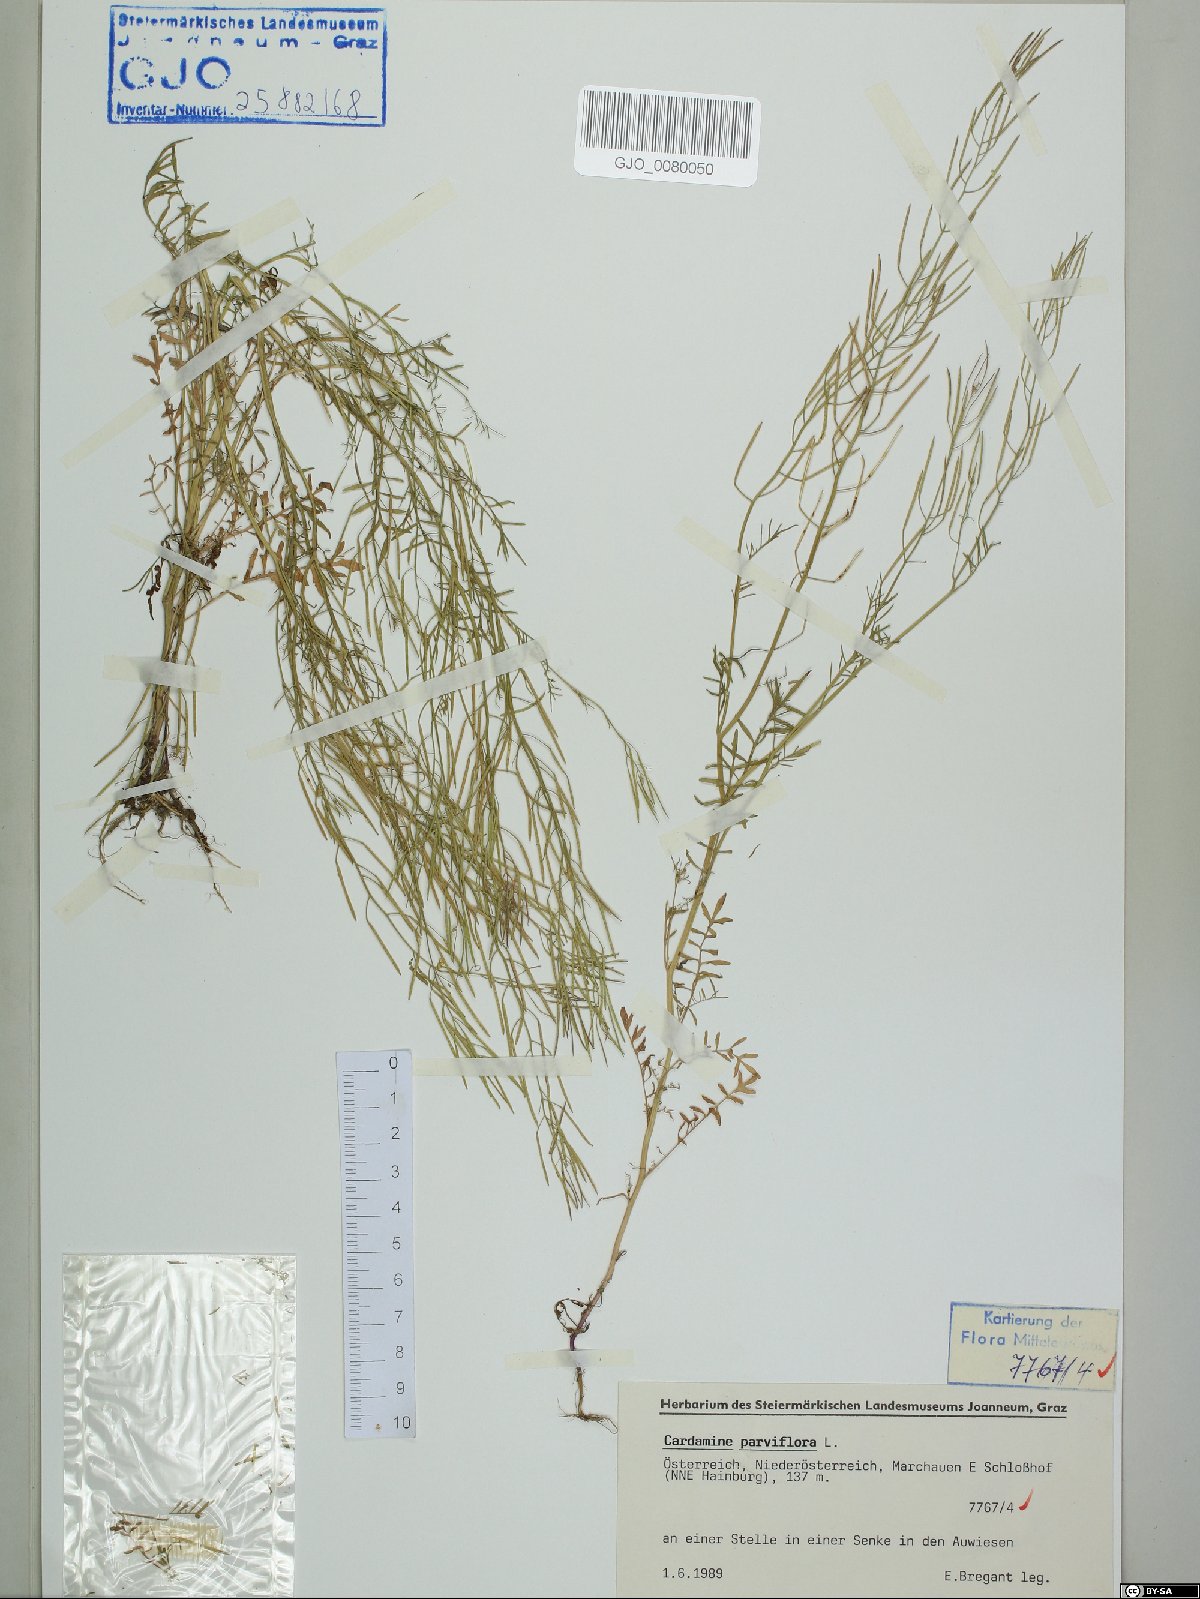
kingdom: Plantae
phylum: Tracheophyta
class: Magnoliopsida
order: Brassicales
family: Brassicaceae
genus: Cardamine
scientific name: Cardamine parviflora
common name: Sand bittercress
